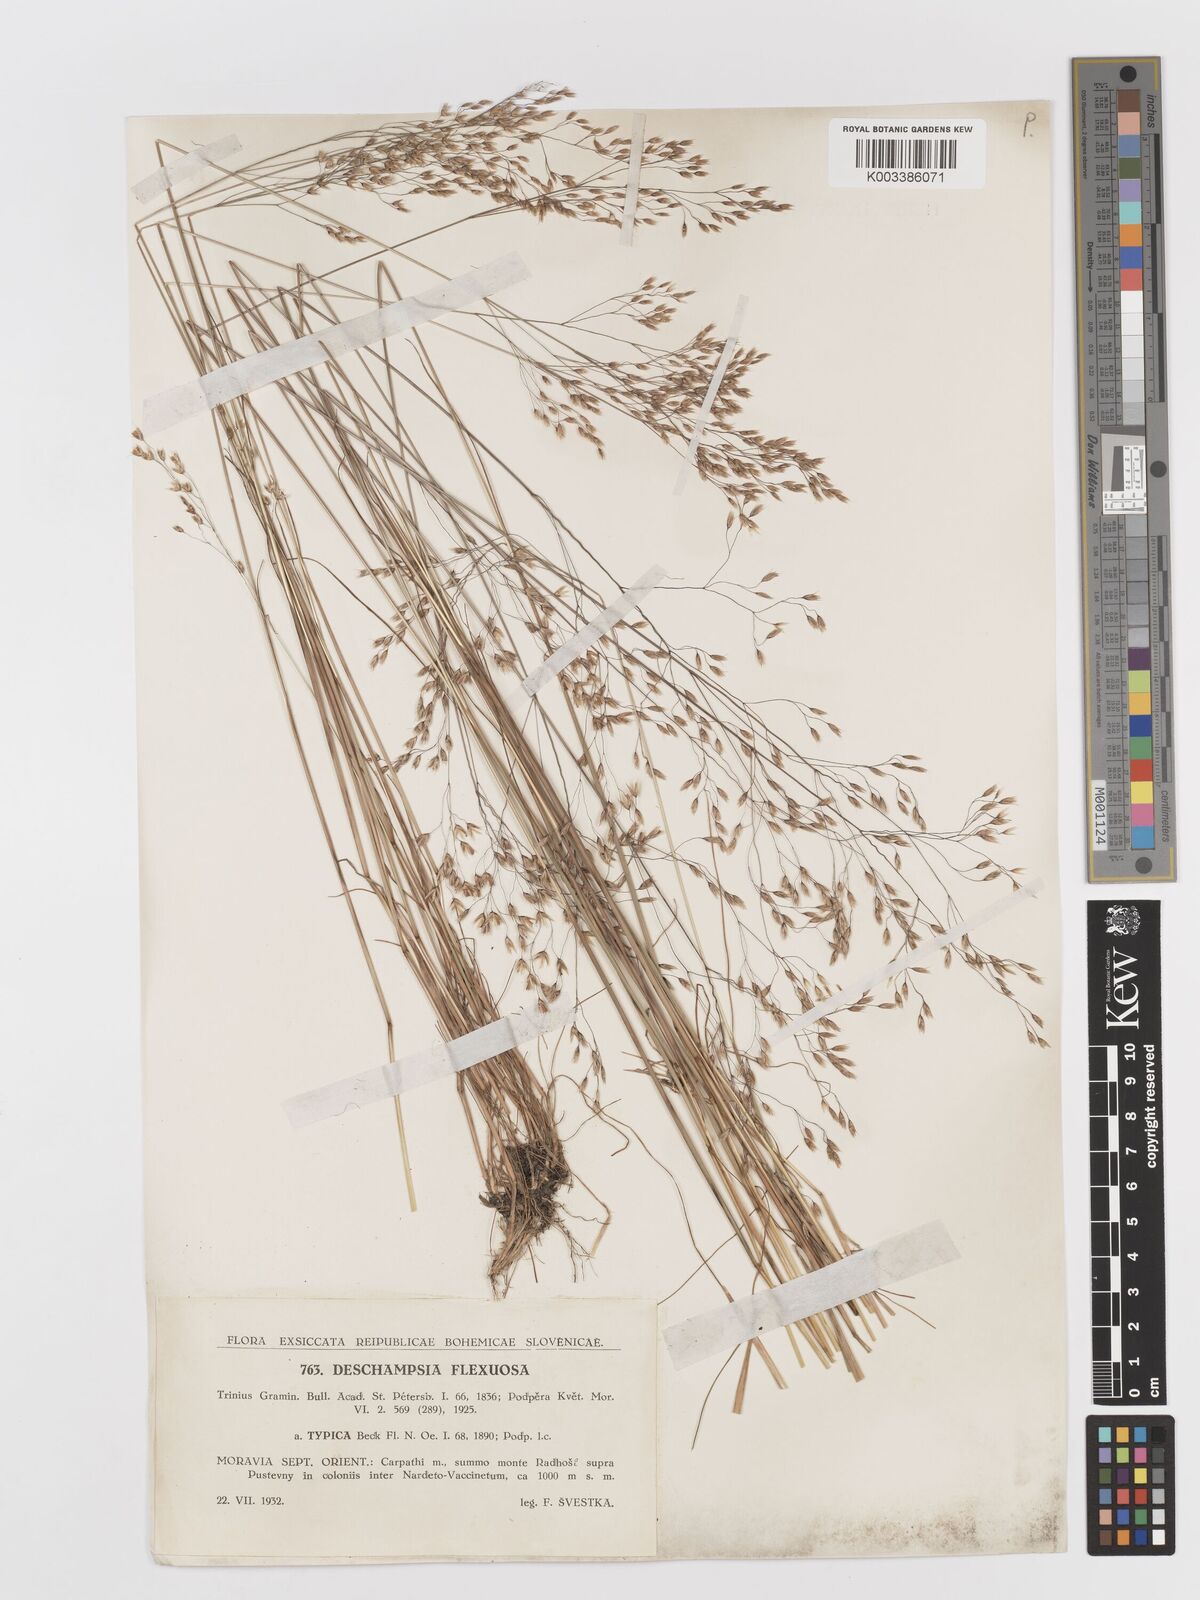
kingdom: Plantae
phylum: Tracheophyta
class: Liliopsida
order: Poales
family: Poaceae
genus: Avenella
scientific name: Avenella flexuosa
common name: Wavy hairgrass
